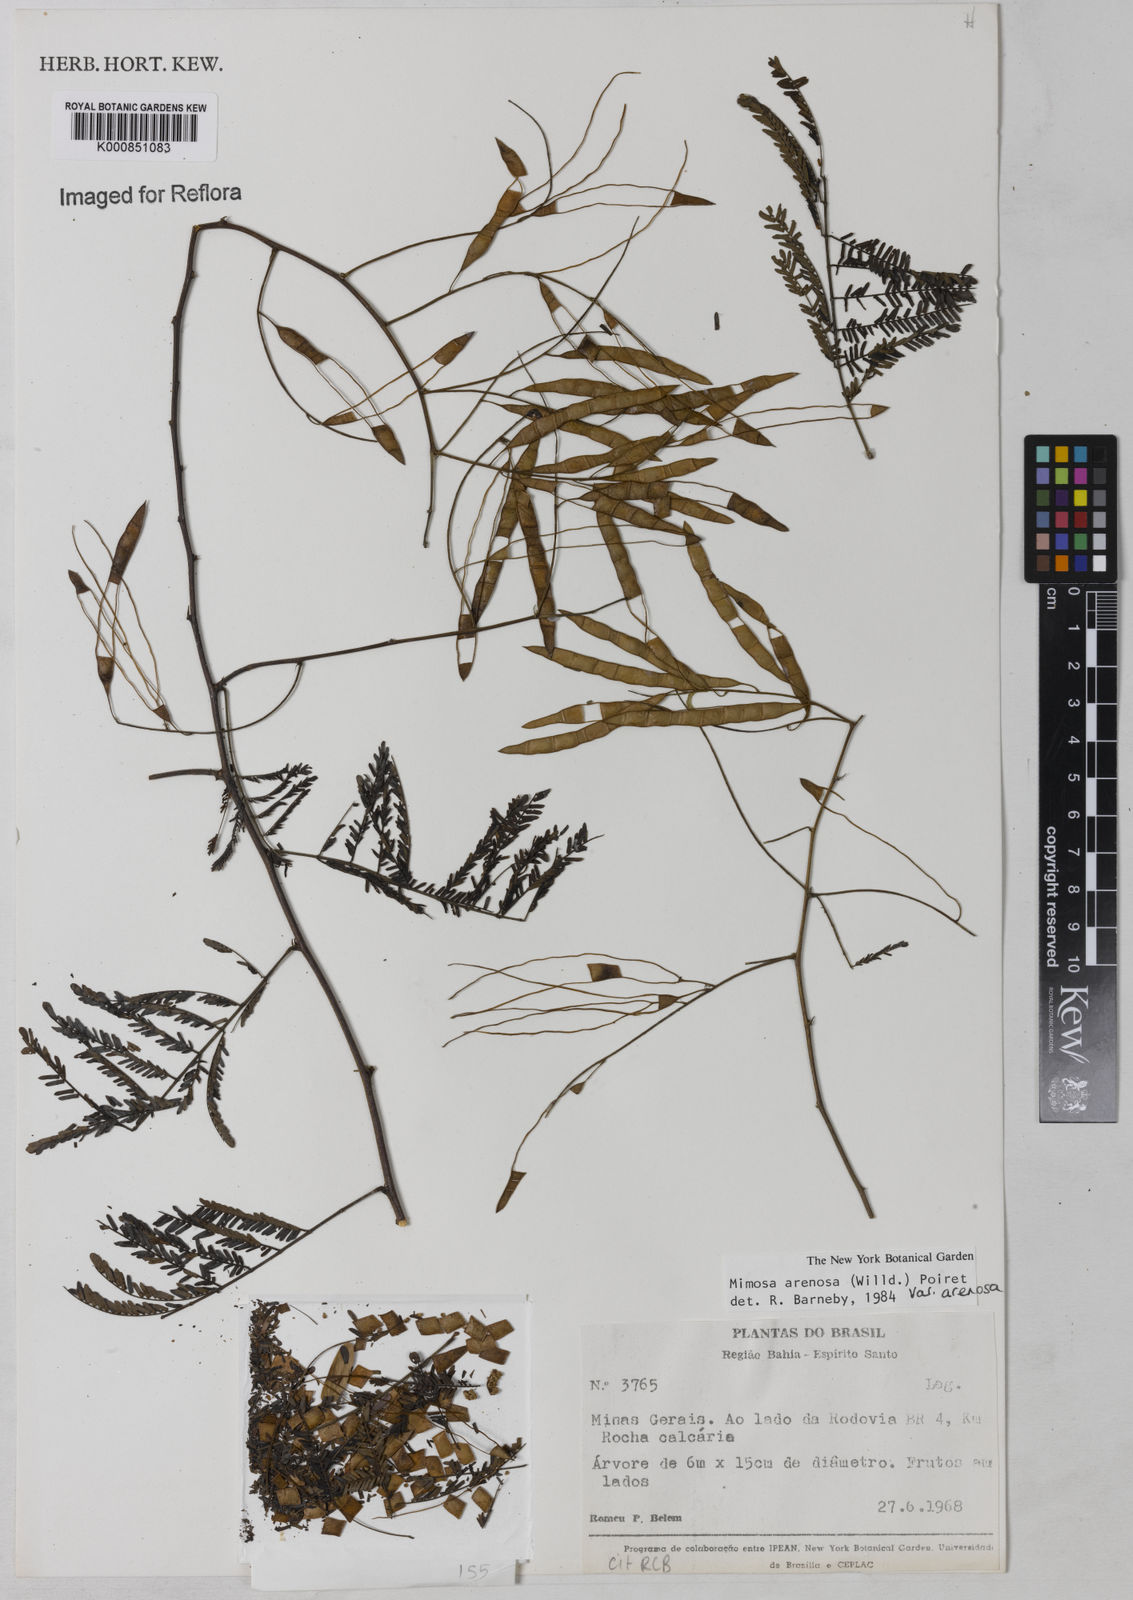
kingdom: Plantae
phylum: Tracheophyta
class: Magnoliopsida
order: Fabales
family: Fabaceae
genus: Mimosa
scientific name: Mimosa arenosa
